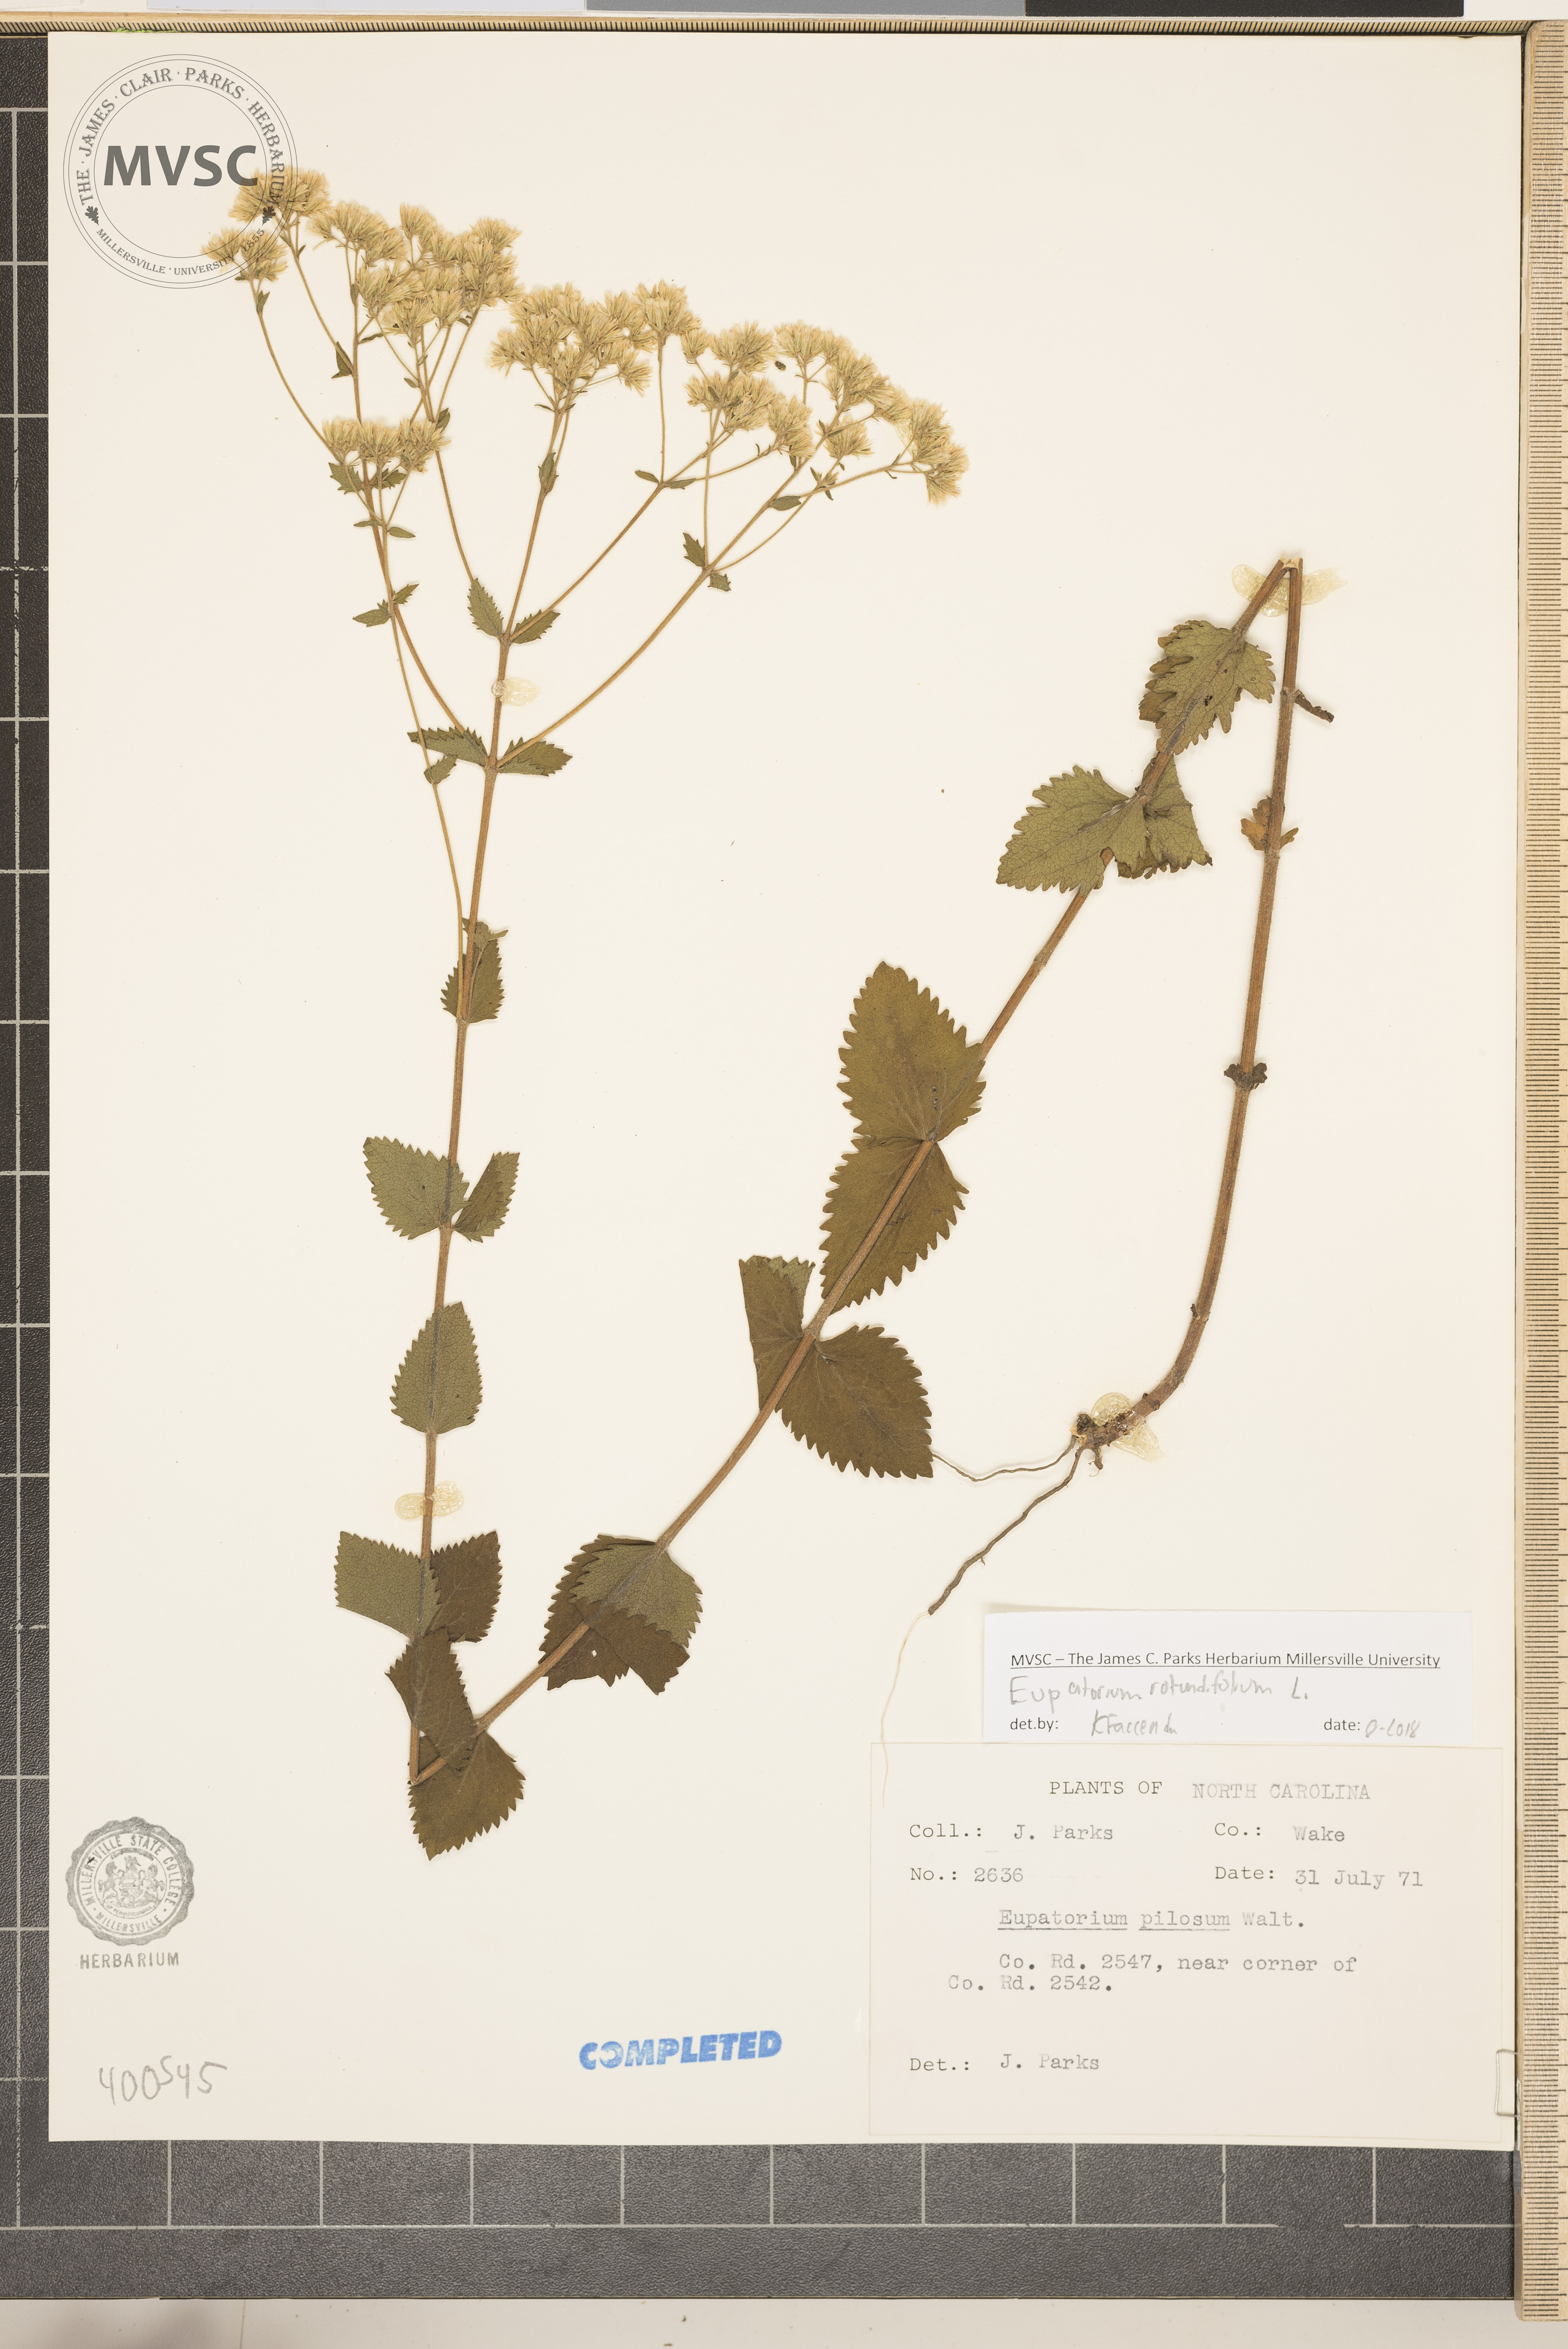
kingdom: Plantae
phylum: Tracheophyta
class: Magnoliopsida
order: Asterales
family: Asteraceae
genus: Eupatorium
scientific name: Eupatorium rotundifolium
